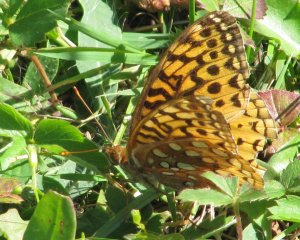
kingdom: Animalia
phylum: Arthropoda
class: Insecta
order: Lepidoptera
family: Nymphalidae
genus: Speyeria
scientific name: Speyeria cybele
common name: Great Spangled Fritillary
